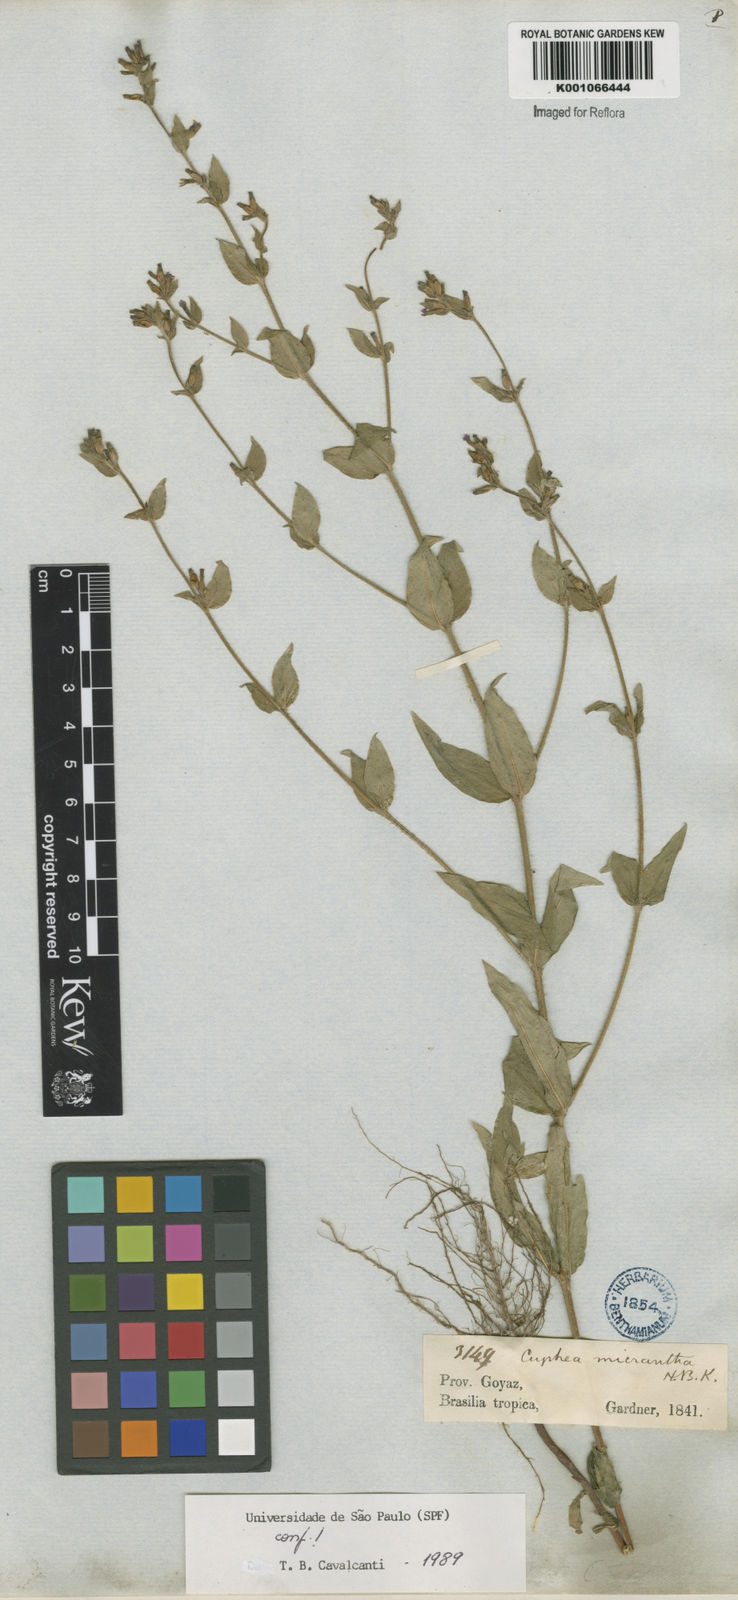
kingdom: Plantae
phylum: Tracheophyta
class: Magnoliopsida
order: Myrtales
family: Lythraceae
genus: Cuphea
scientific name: Cuphea micrantha
